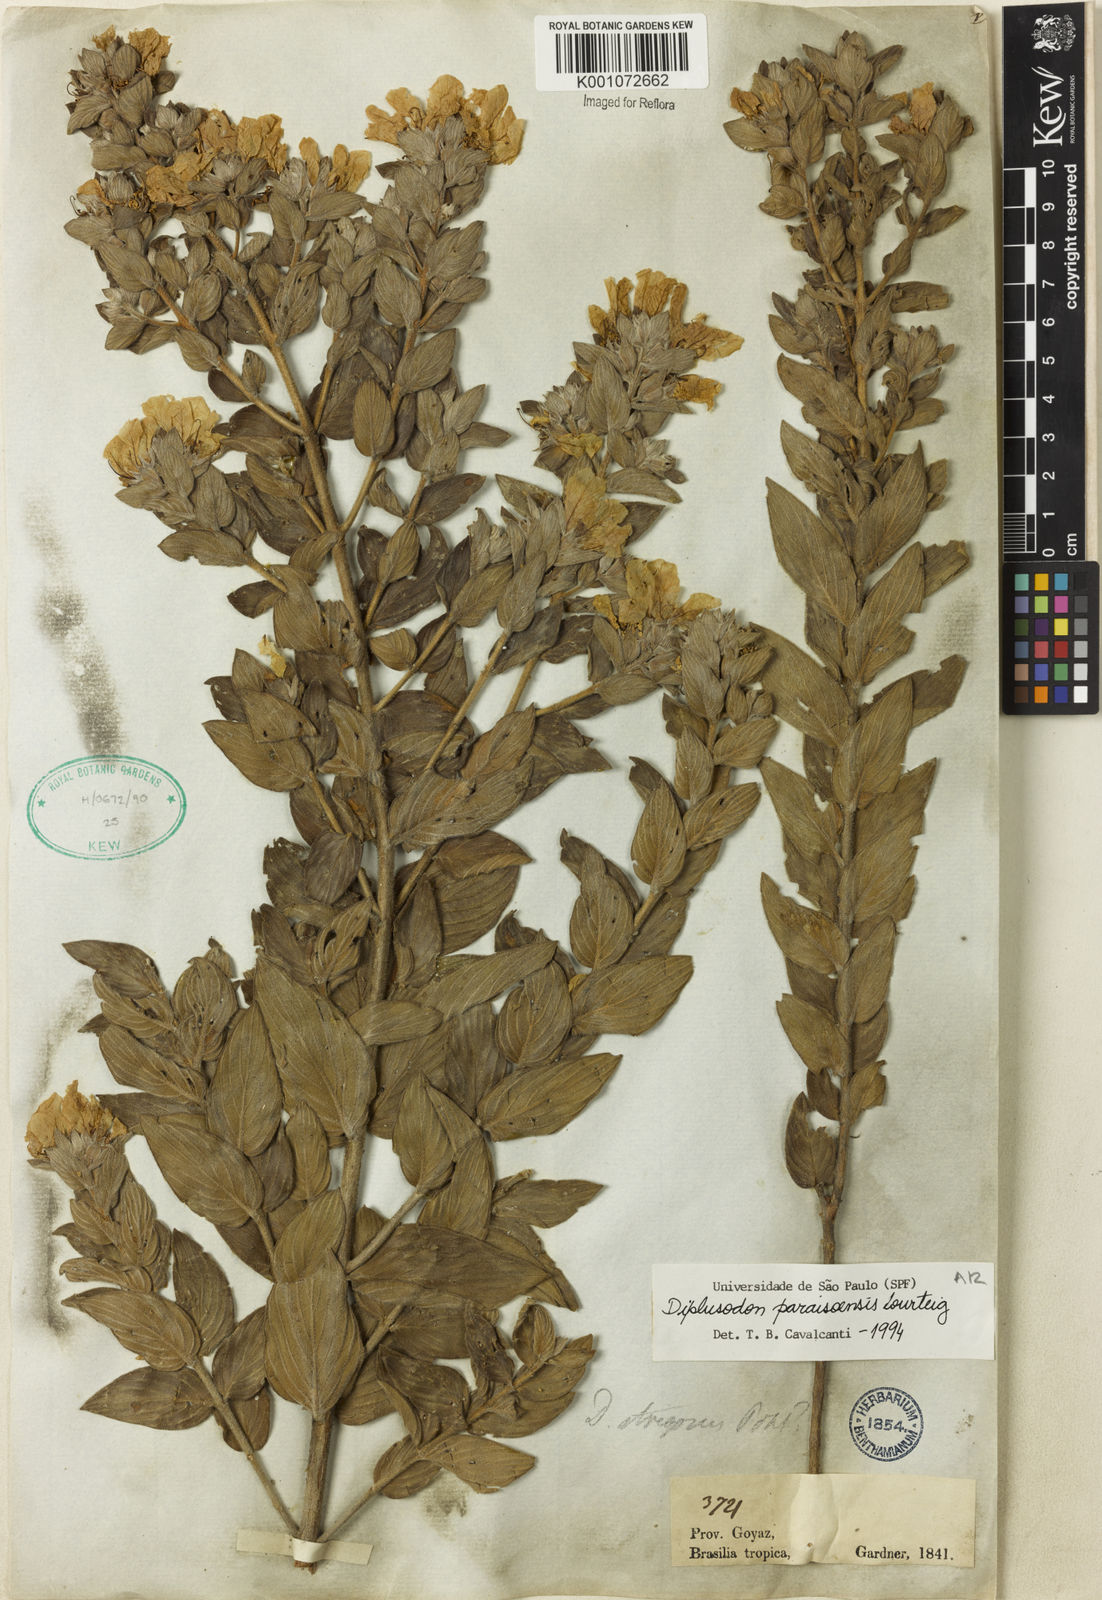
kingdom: Plantae
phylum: Tracheophyta
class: Magnoliopsida
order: Myrtales
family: Lythraceae
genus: Diplusodon
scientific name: Diplusodon paraisoensis
